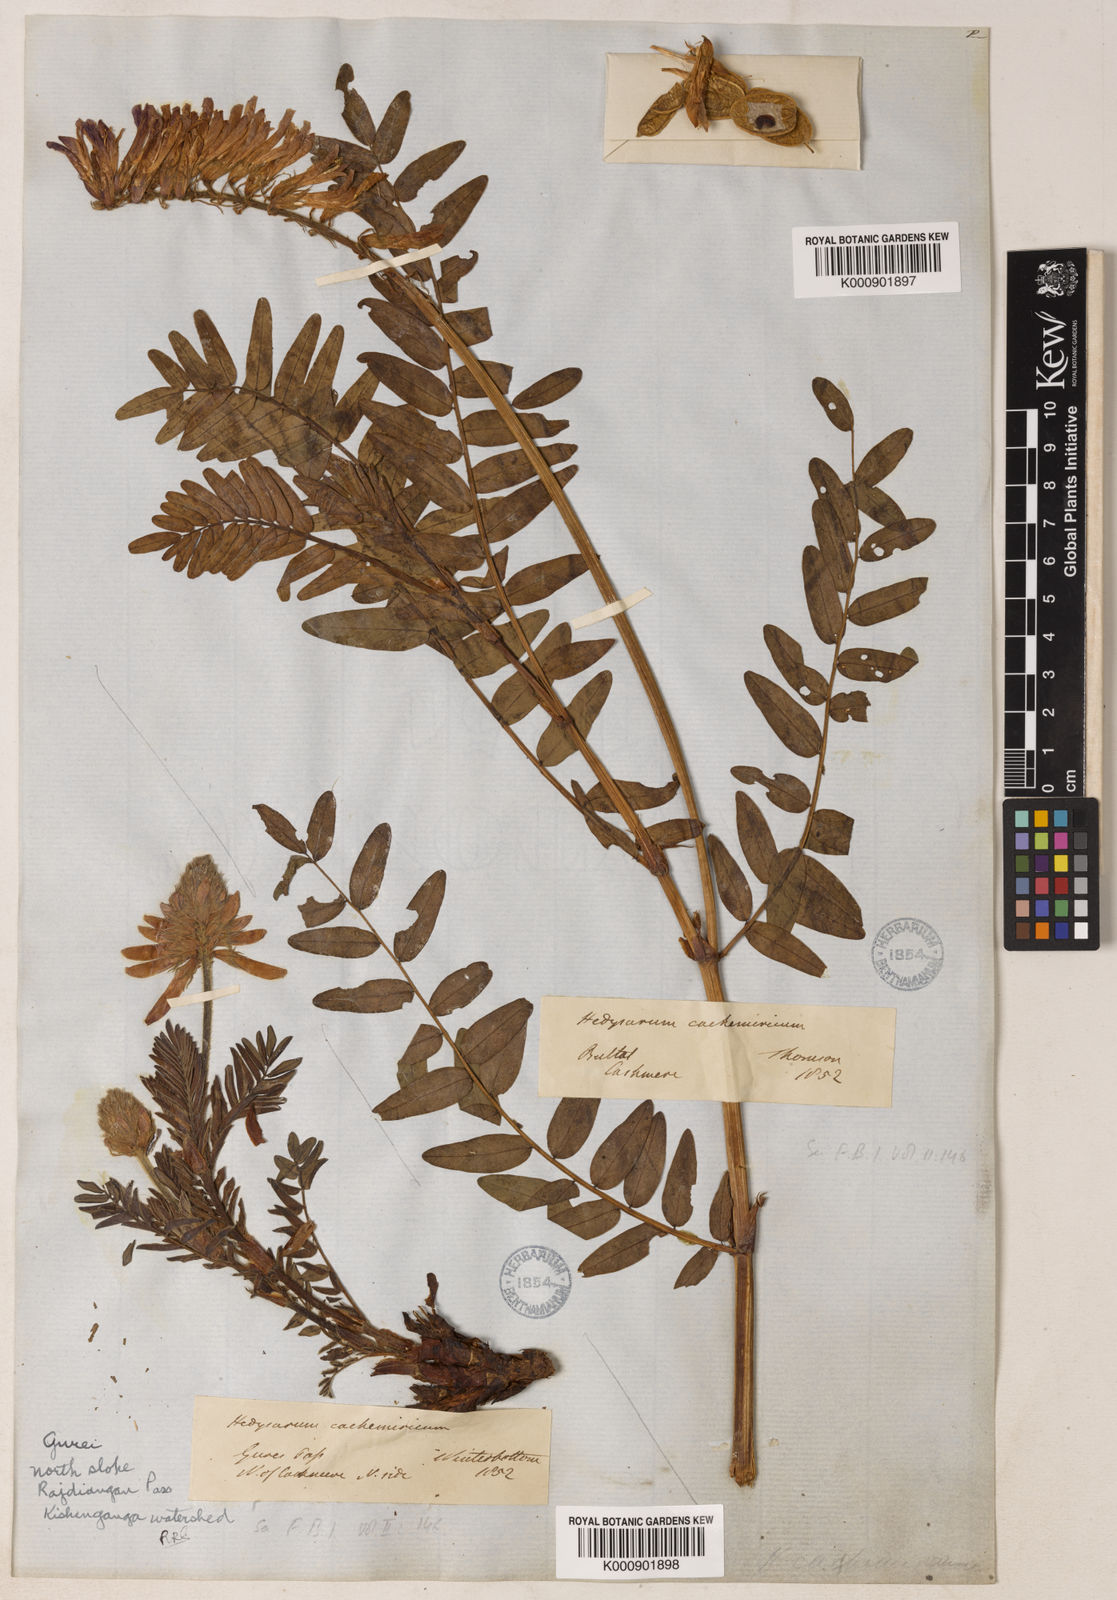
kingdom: Plantae
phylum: Tracheophyta
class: Magnoliopsida
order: Fabales
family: Fabaceae
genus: Hedysarum
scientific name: Hedysarum cachemirianum
